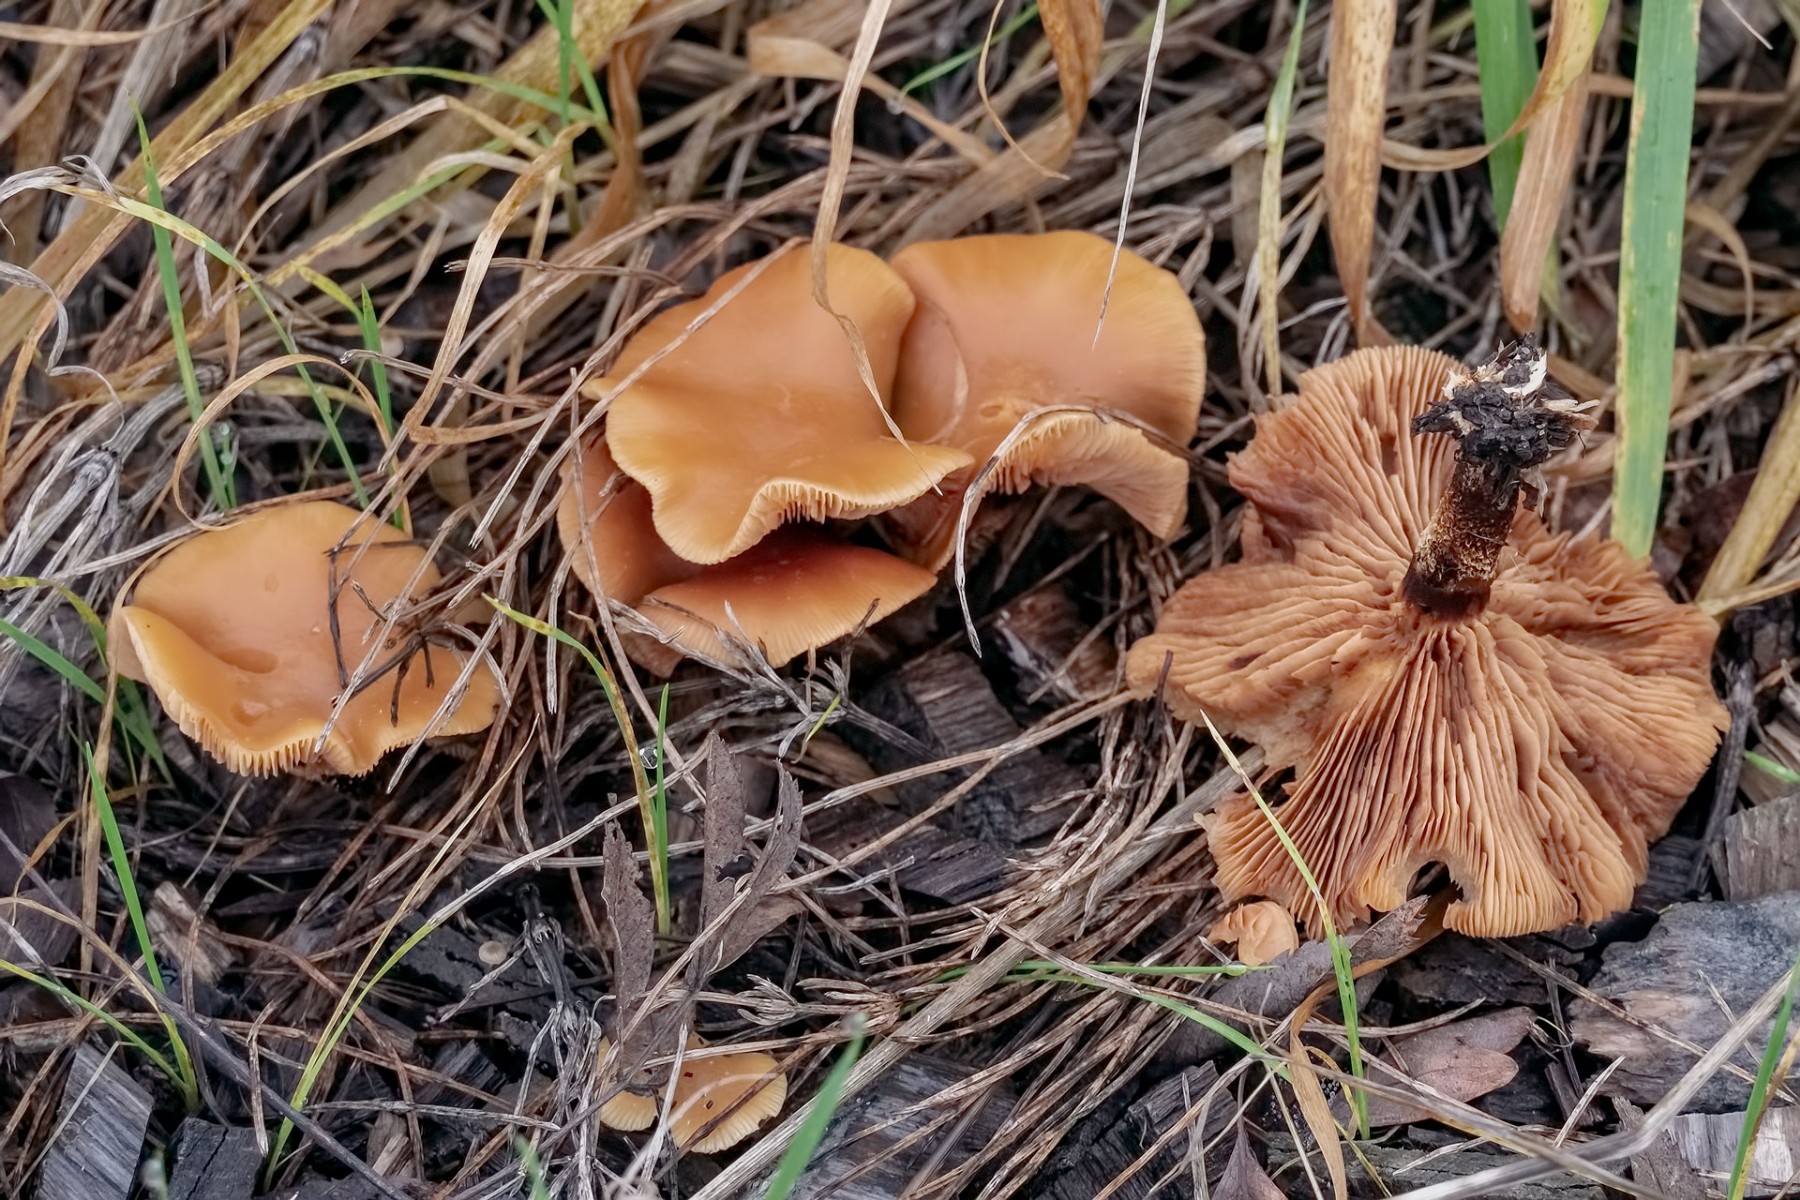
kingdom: Fungi
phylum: Basidiomycota
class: Agaricomycetes
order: Agaricales
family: Strophariaceae
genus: Kuehneromyces
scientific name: Kuehneromyces mutabilis
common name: foranderlig skælhat
